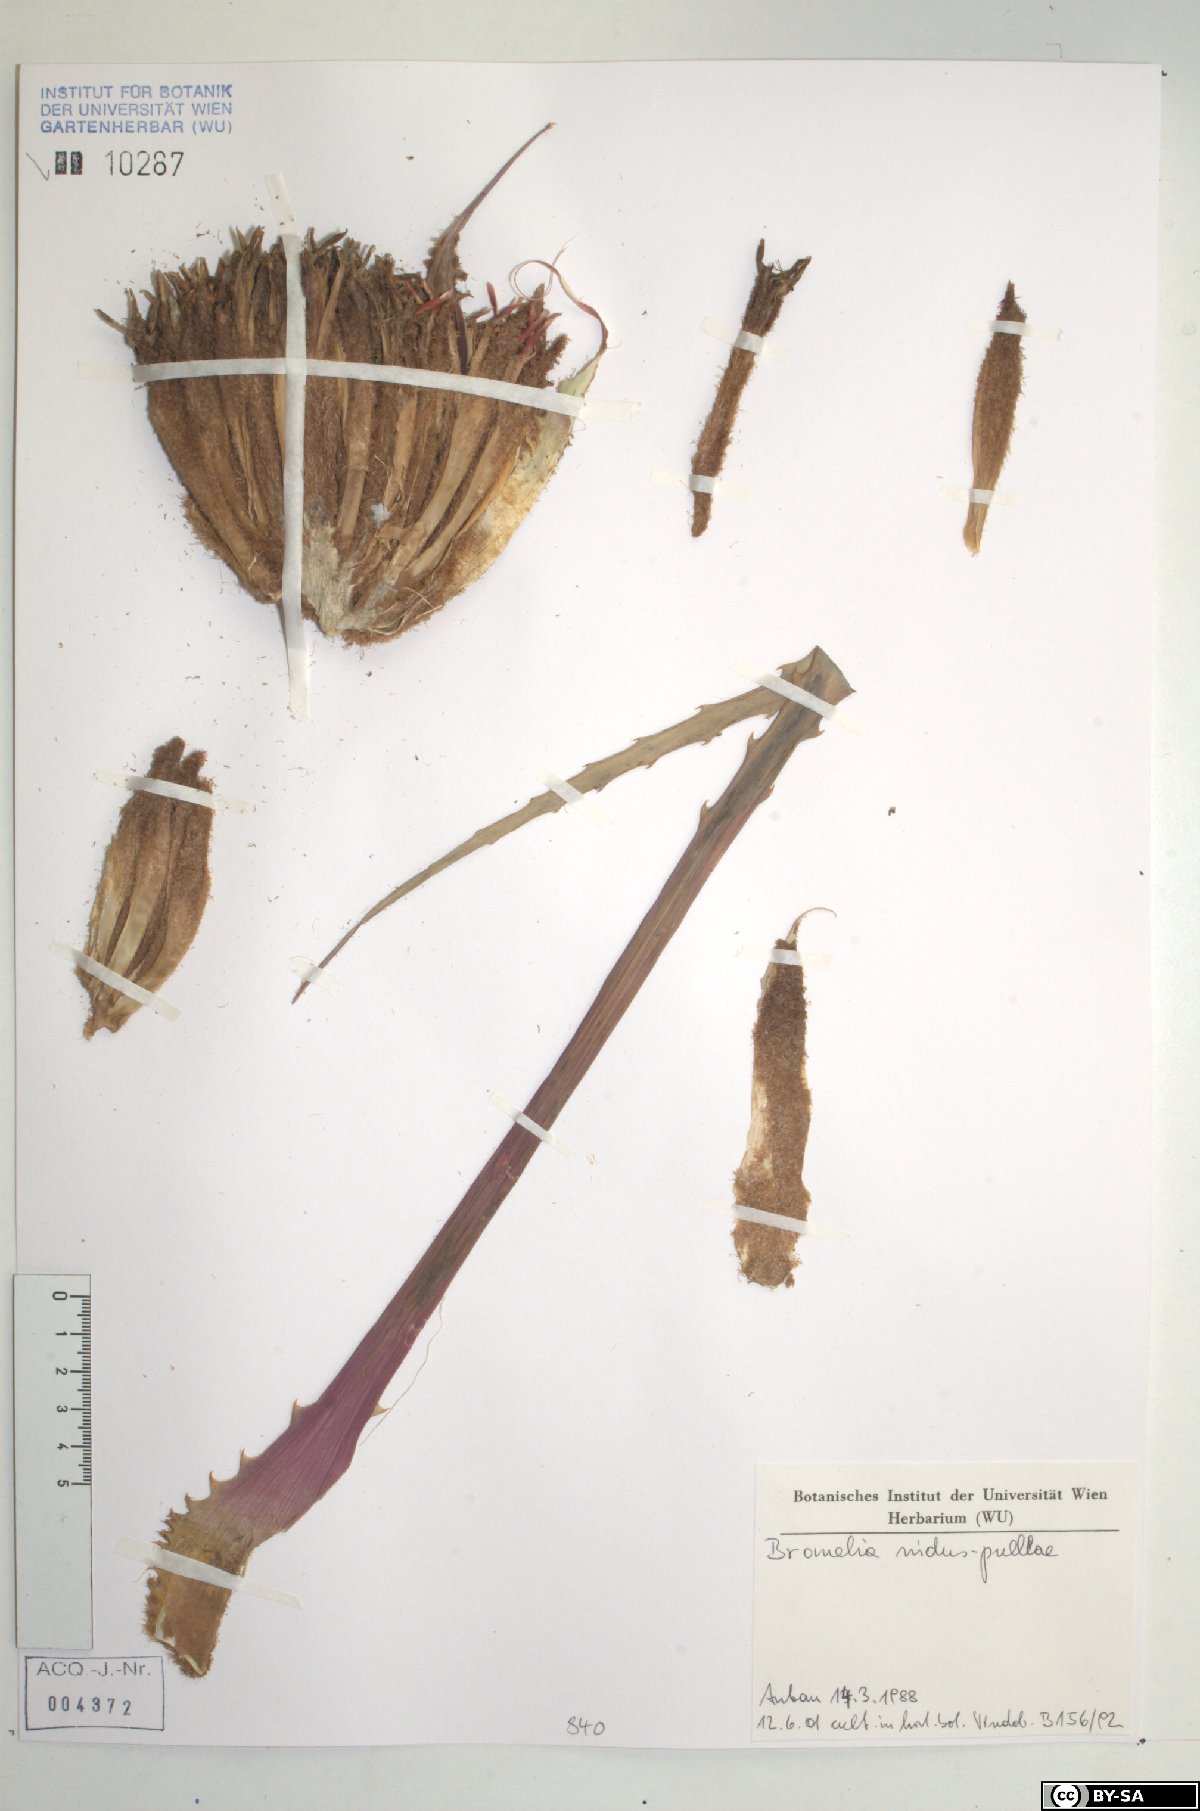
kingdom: Plantae
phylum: Tracheophyta
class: Liliopsida
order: Poales
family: Bromeliaceae
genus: Bromelia
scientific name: Bromelia nidus-puellae
